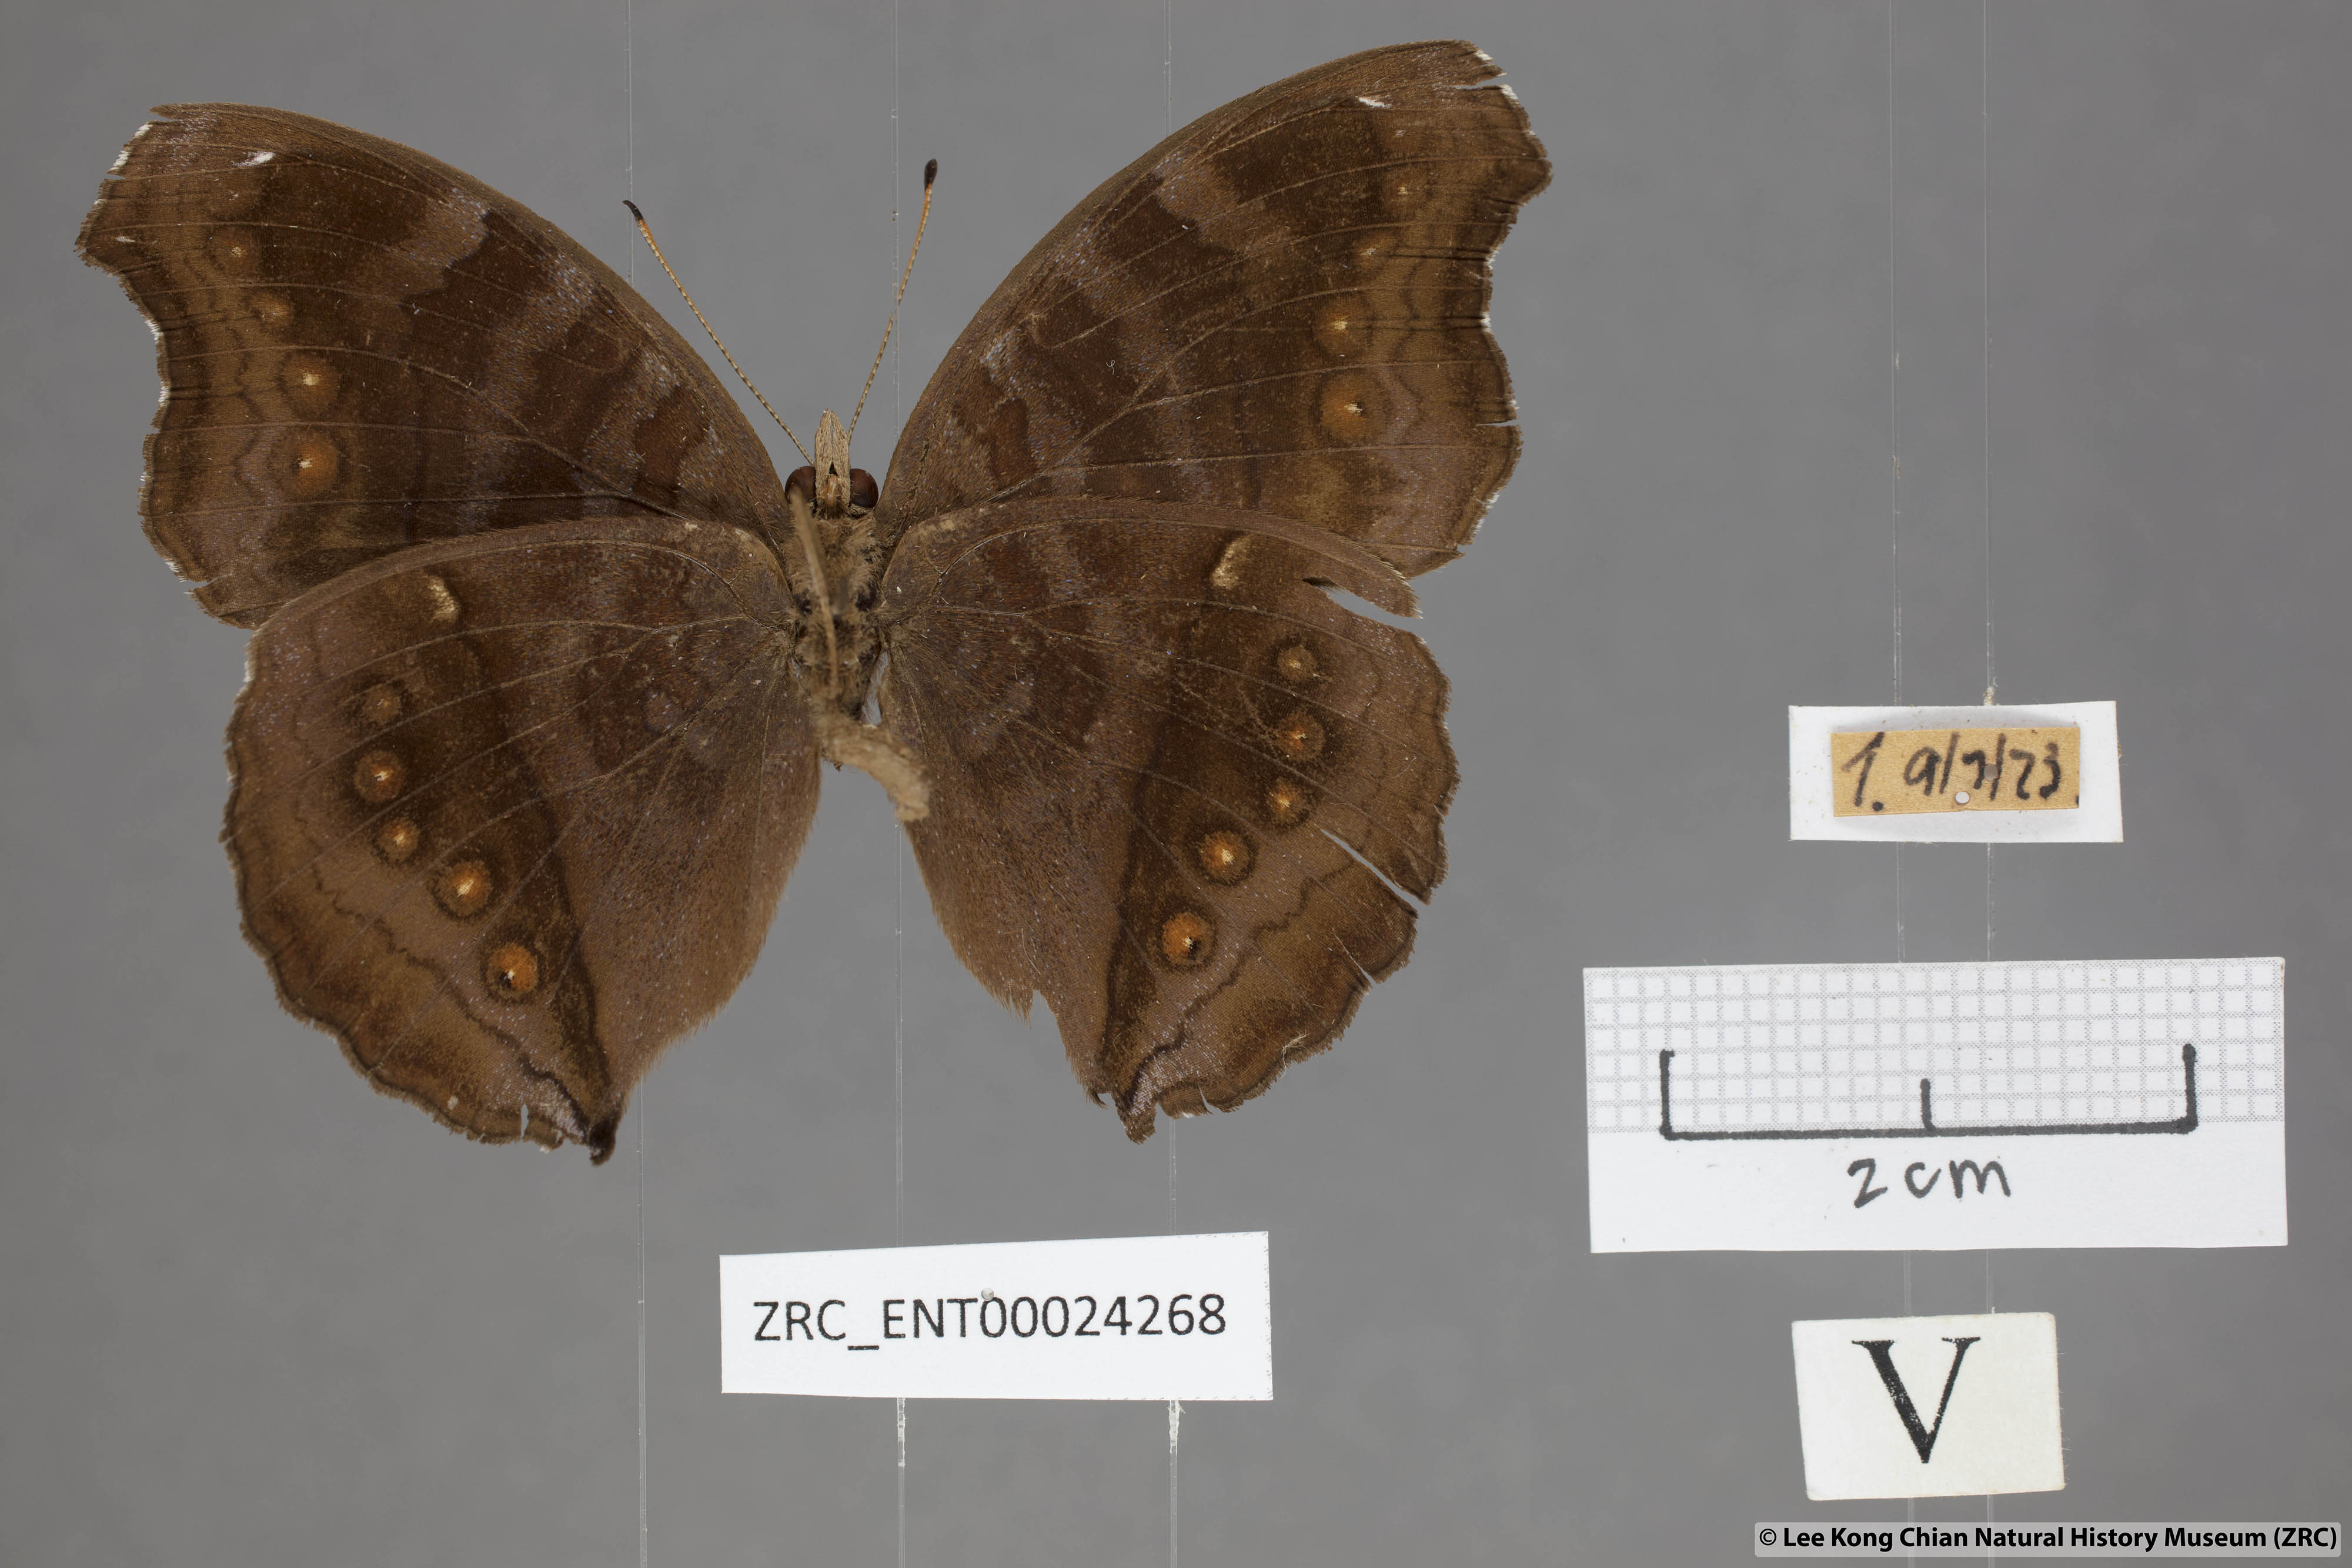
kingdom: Animalia
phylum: Arthropoda
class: Insecta
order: Lepidoptera
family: Nymphalidae
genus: Junonia
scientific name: Junonia hedonia
